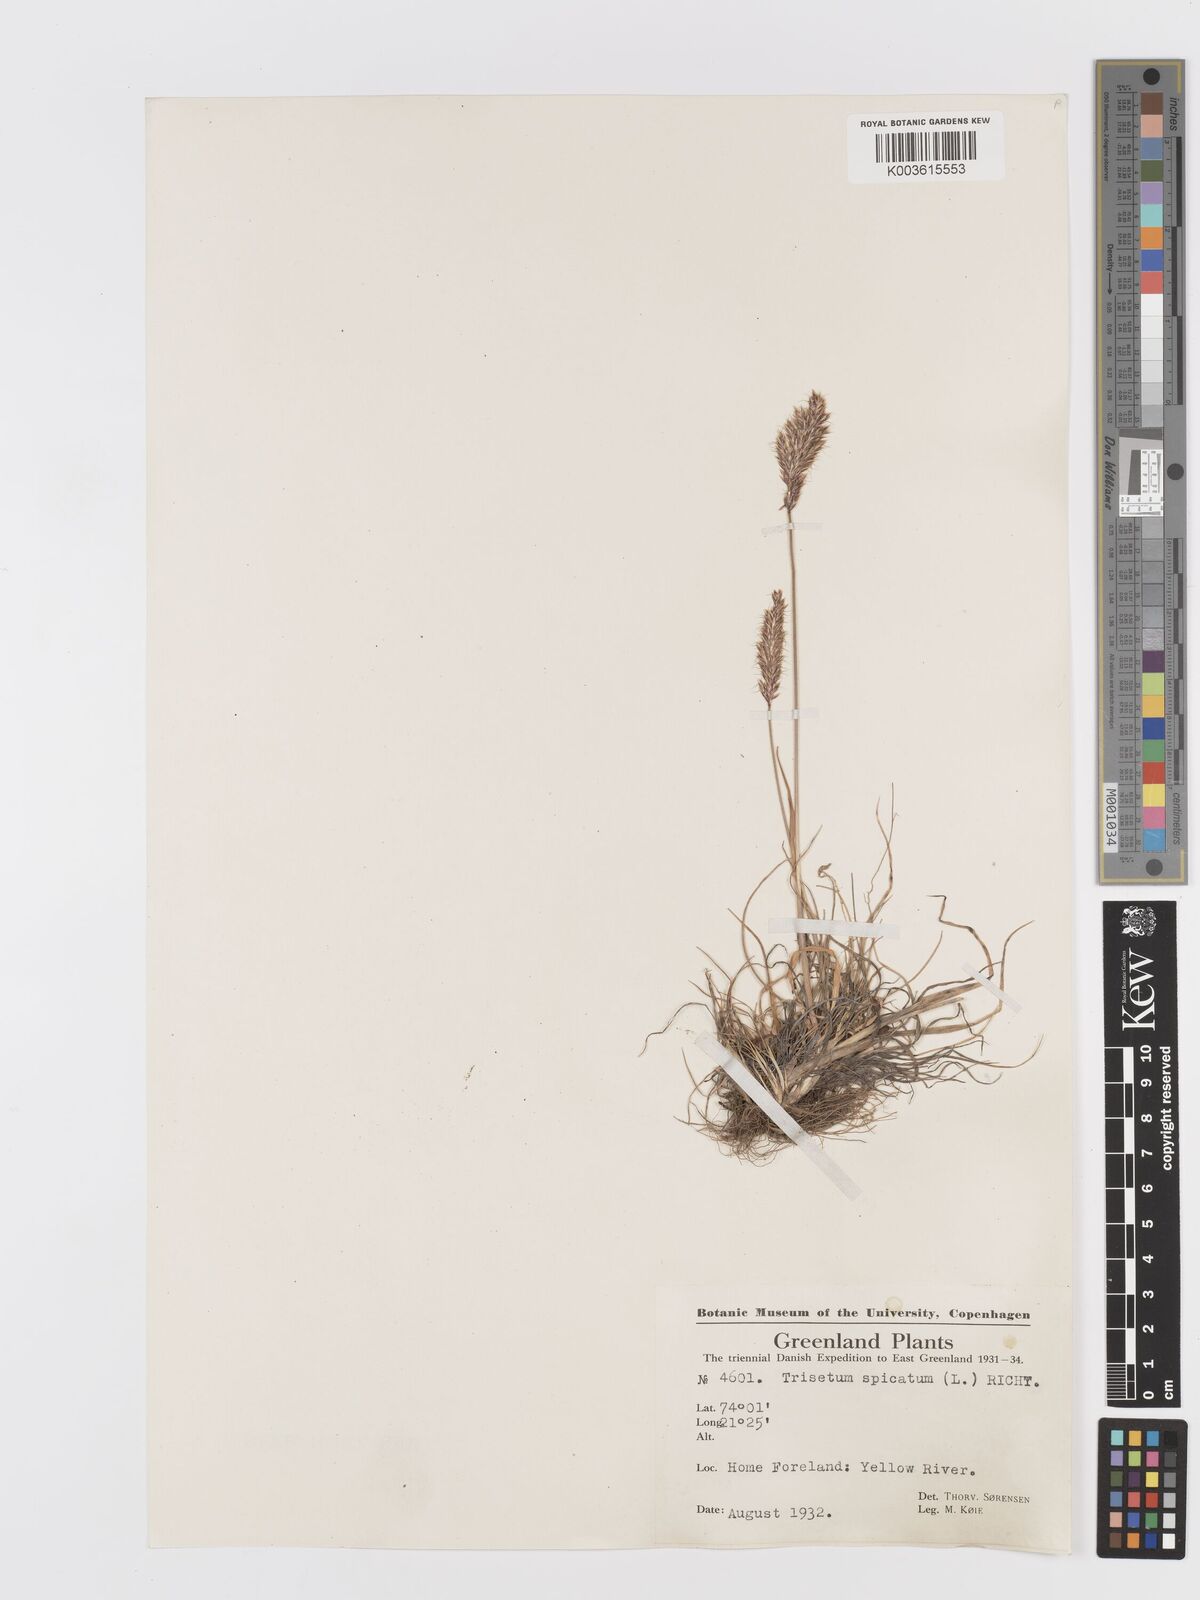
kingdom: Plantae
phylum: Tracheophyta
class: Liliopsida
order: Poales
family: Poaceae
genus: Koeleria
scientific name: Koeleria spicata
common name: Mountain trisetum
